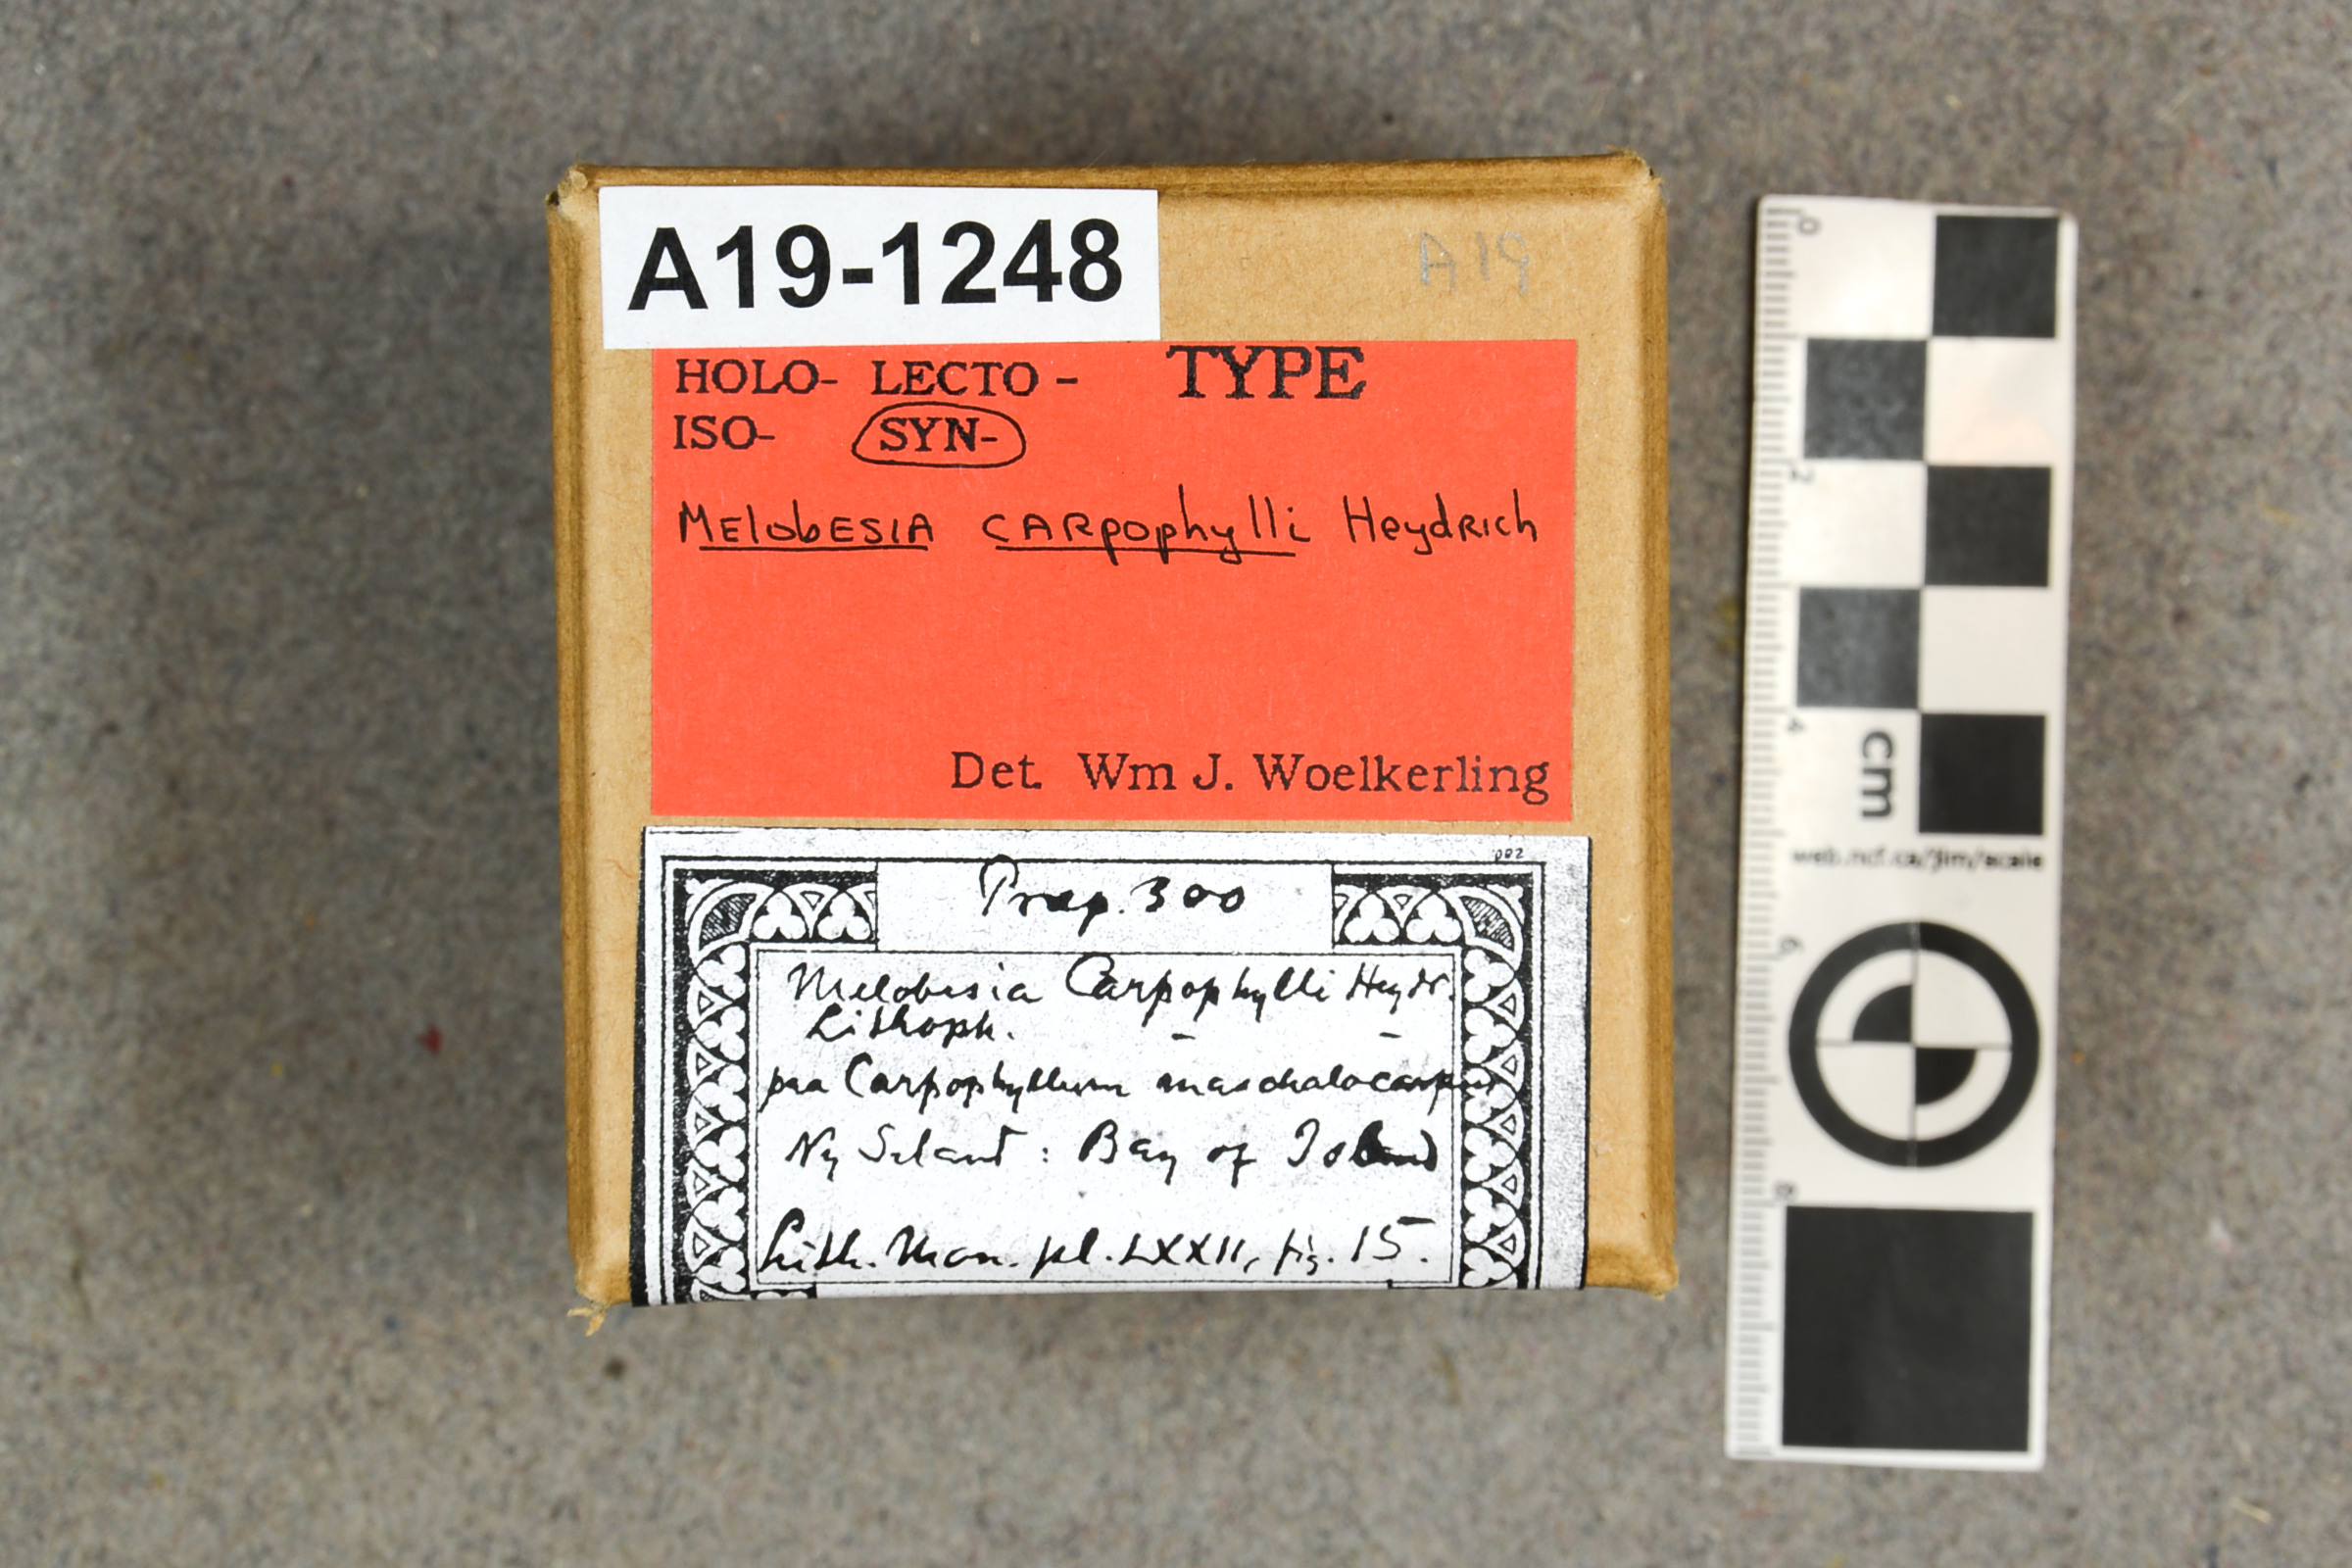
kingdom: Plantae
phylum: Rhodophyta
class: Florideophyceae
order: Corallinales
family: Lithophyllaceae
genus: Lithophyllum
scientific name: Lithophyllum carpophylli
